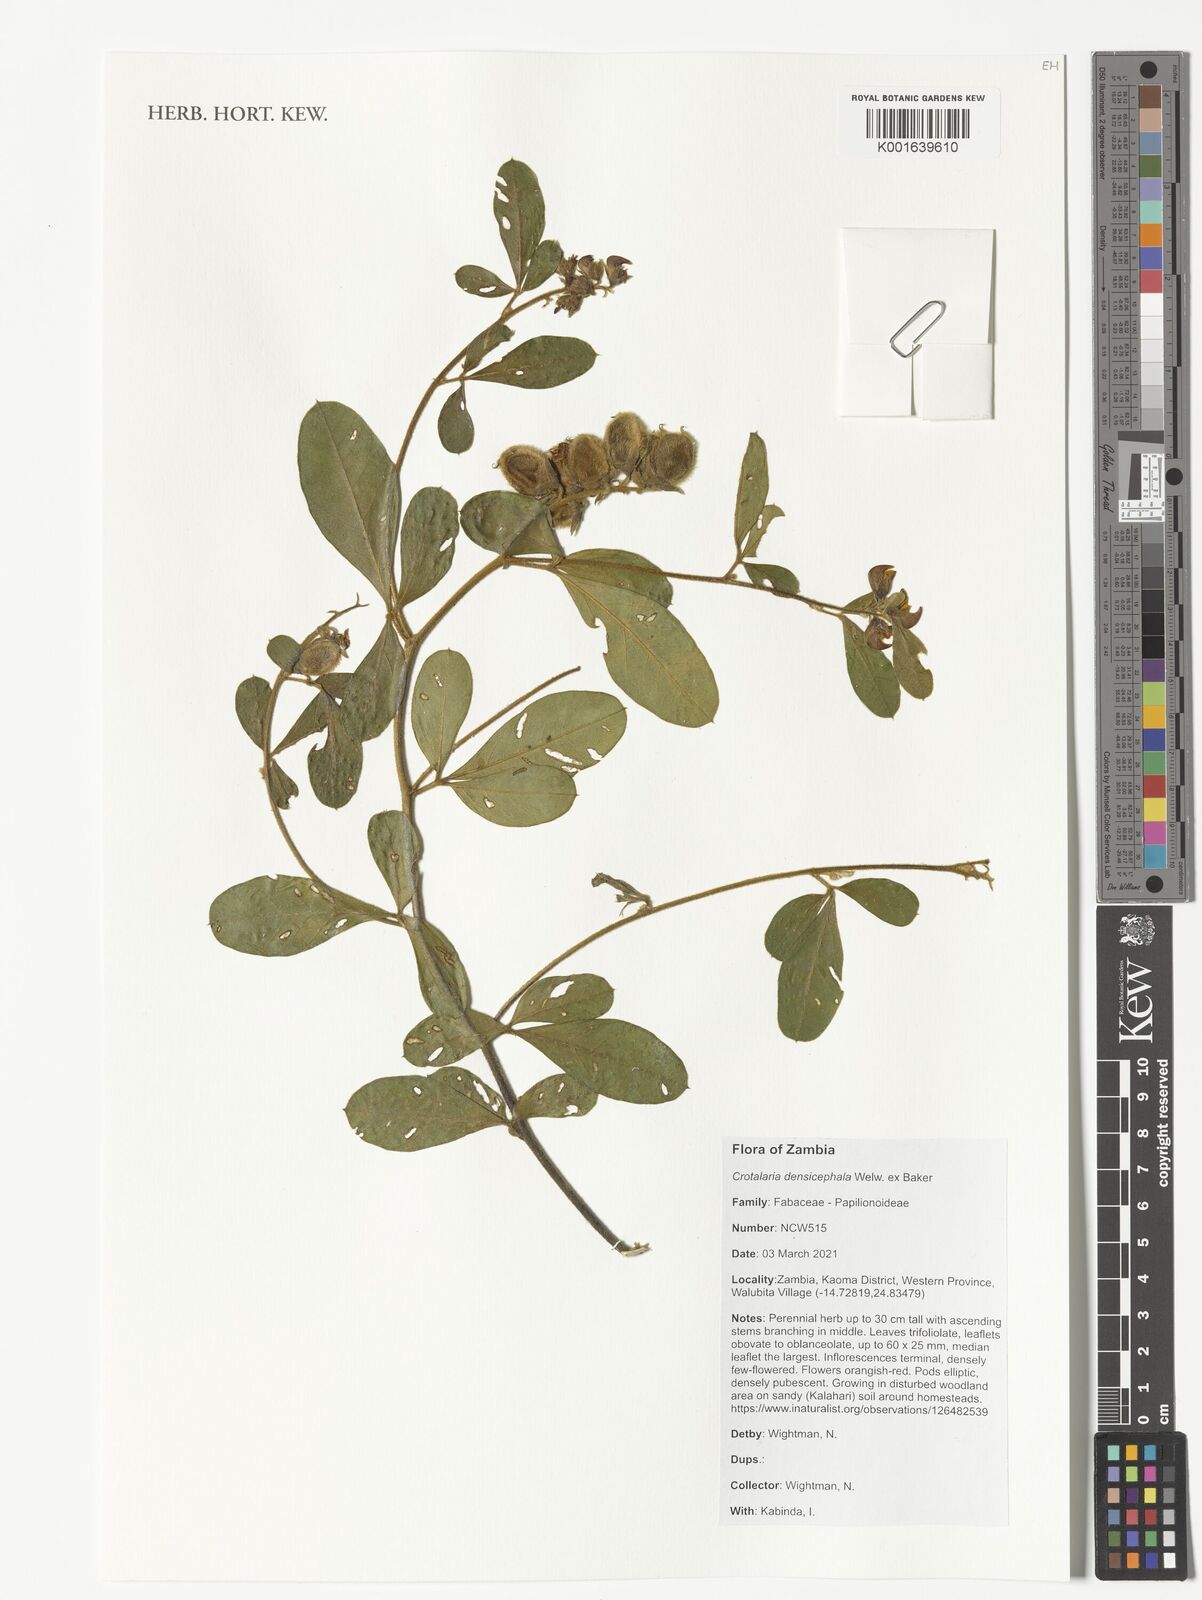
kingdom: Plantae
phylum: Tracheophyta
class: Magnoliopsida
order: Fabales
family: Fabaceae
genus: Crotalaria
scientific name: Crotalaria densicephala
